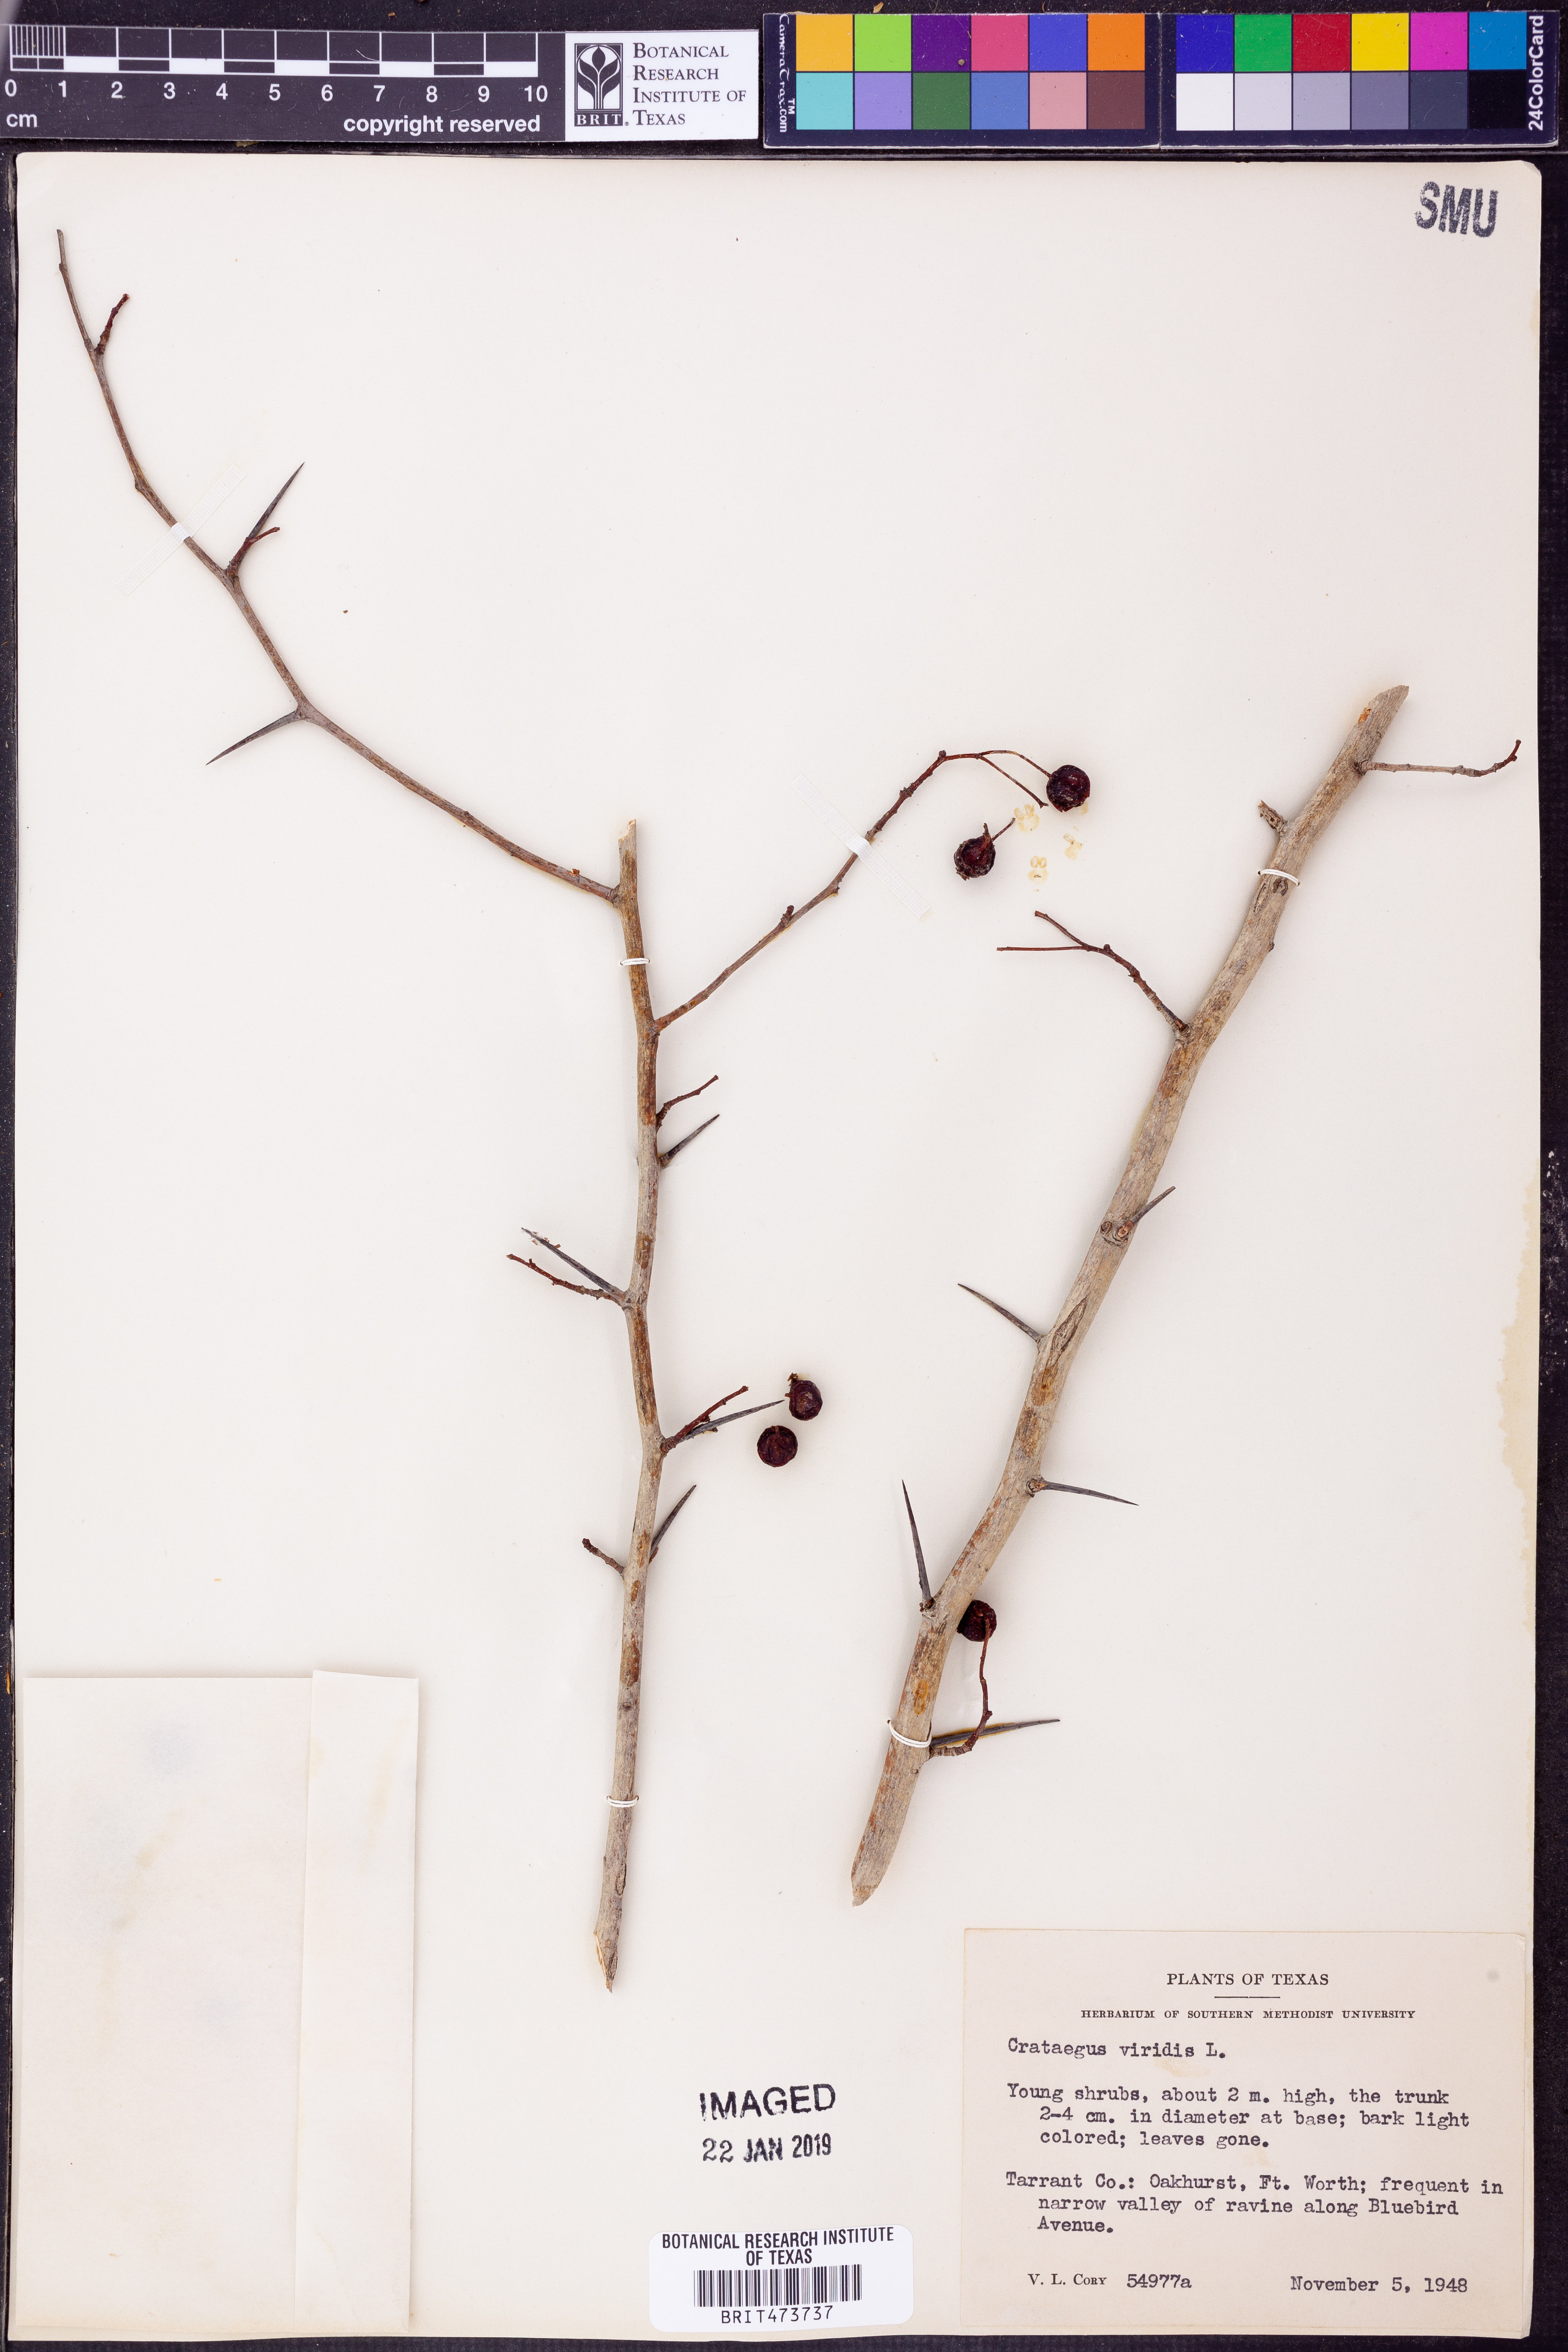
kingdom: Plantae
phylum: Tracheophyta
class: Magnoliopsida
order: Rosales
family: Rosaceae
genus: Crataegus
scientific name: Crataegus viridis
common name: Southernthorn
